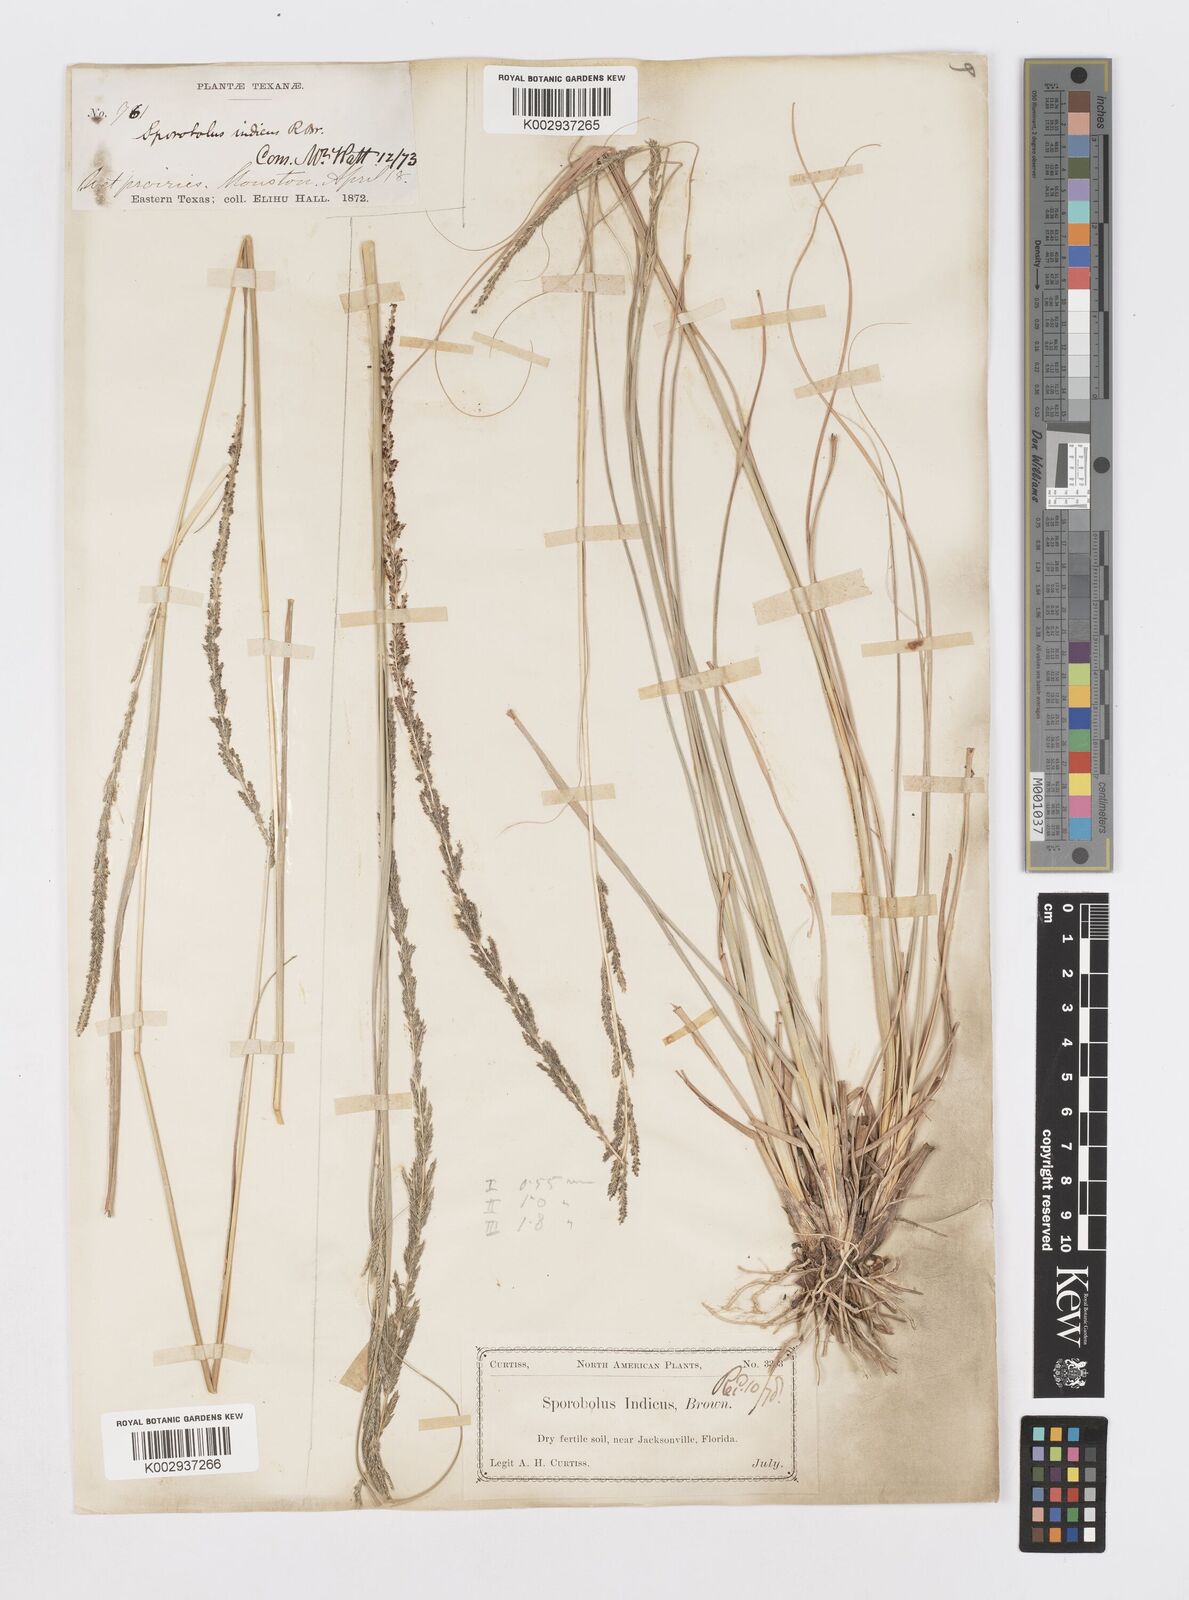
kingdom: Plantae
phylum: Tracheophyta
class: Liliopsida
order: Poales
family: Poaceae
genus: Sporobolus
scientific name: Sporobolus indicus
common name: Smut grass
